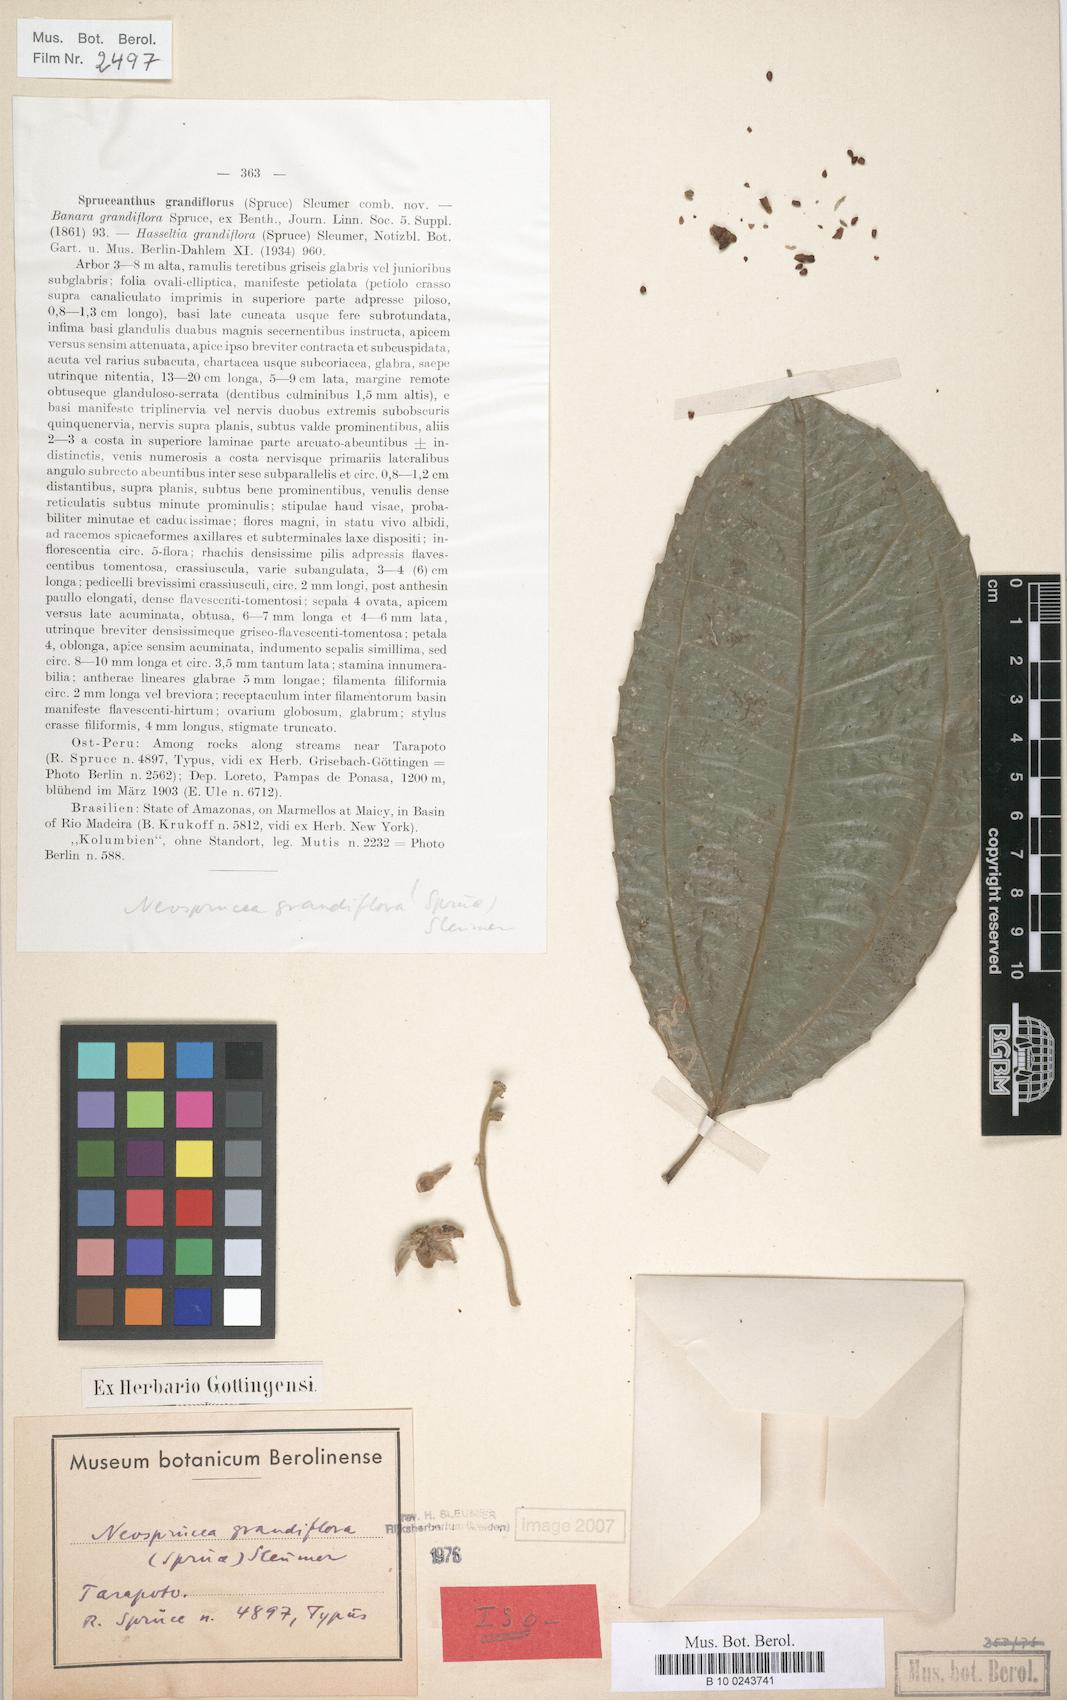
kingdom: Plantae
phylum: Tracheophyta
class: Magnoliopsida
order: Malpighiales
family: Salicaceae
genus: Neosprucea
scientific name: Neosprucea grandiflora
